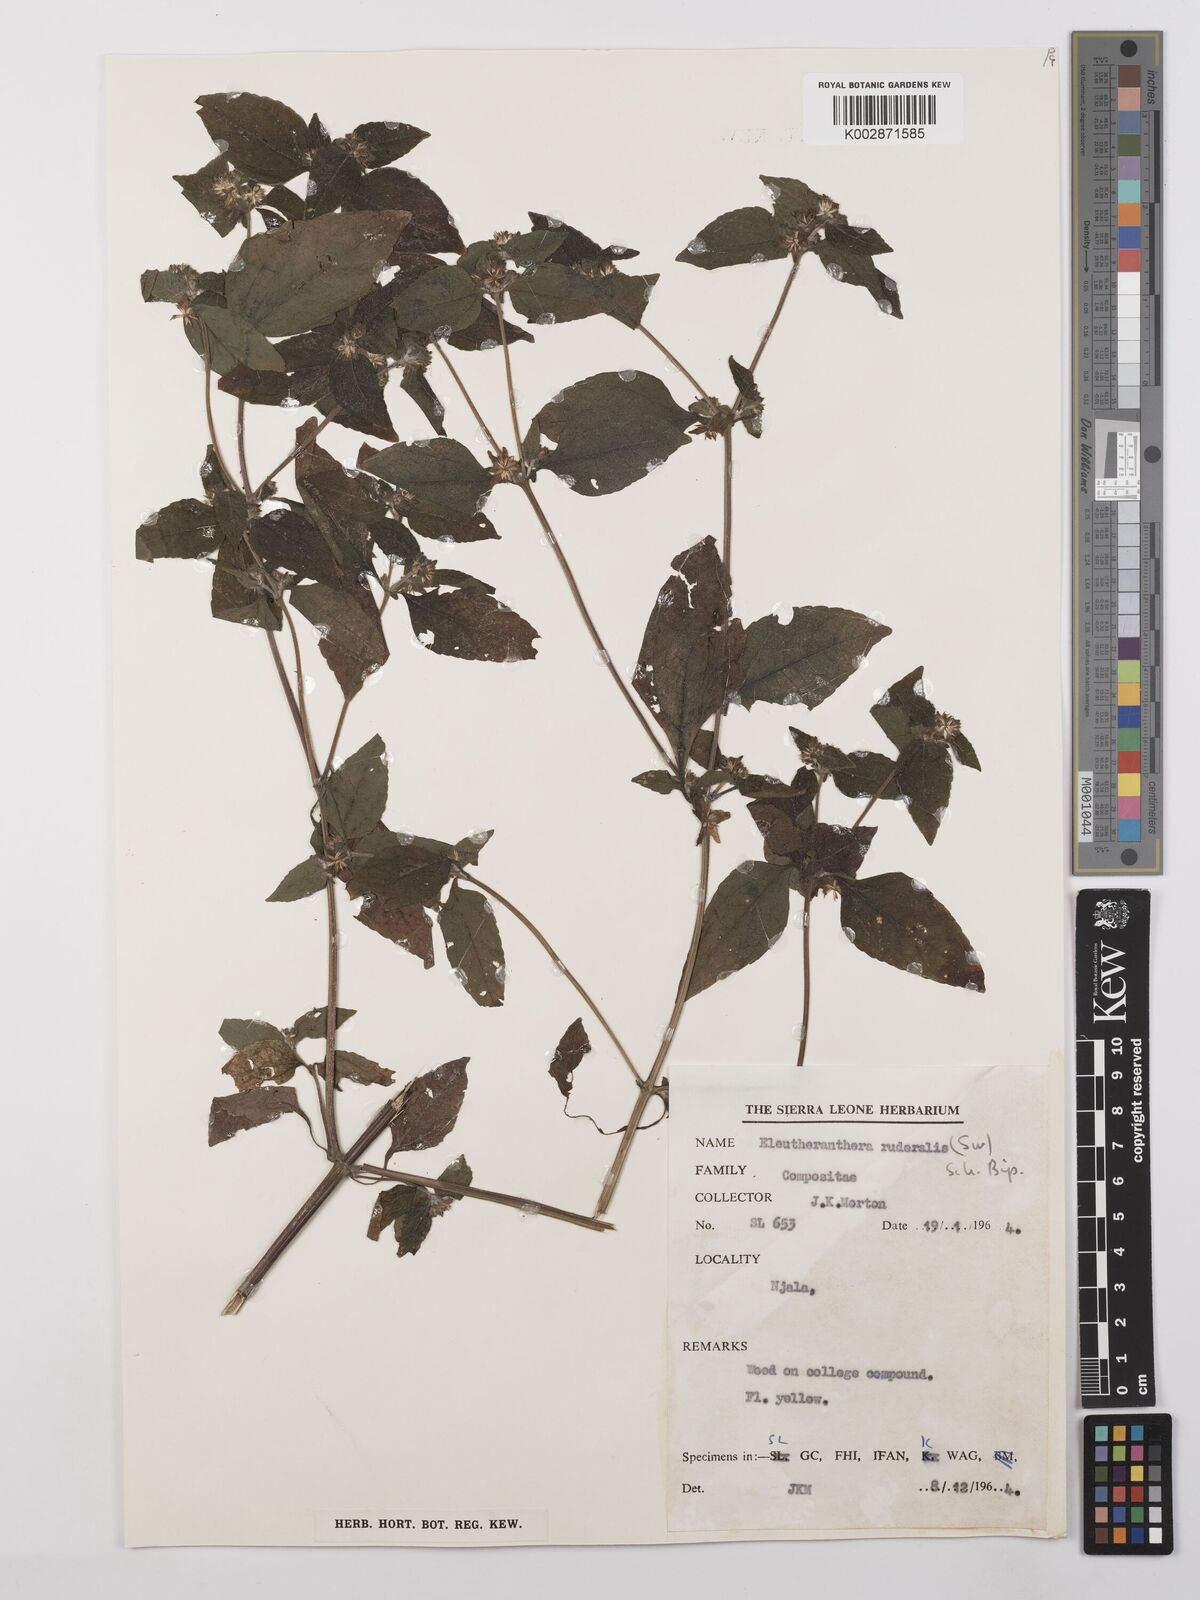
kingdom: Plantae
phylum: Tracheophyta
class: Magnoliopsida
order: Asterales
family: Asteraceae
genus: Eleutheranthera
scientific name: Eleutheranthera ruderalis
